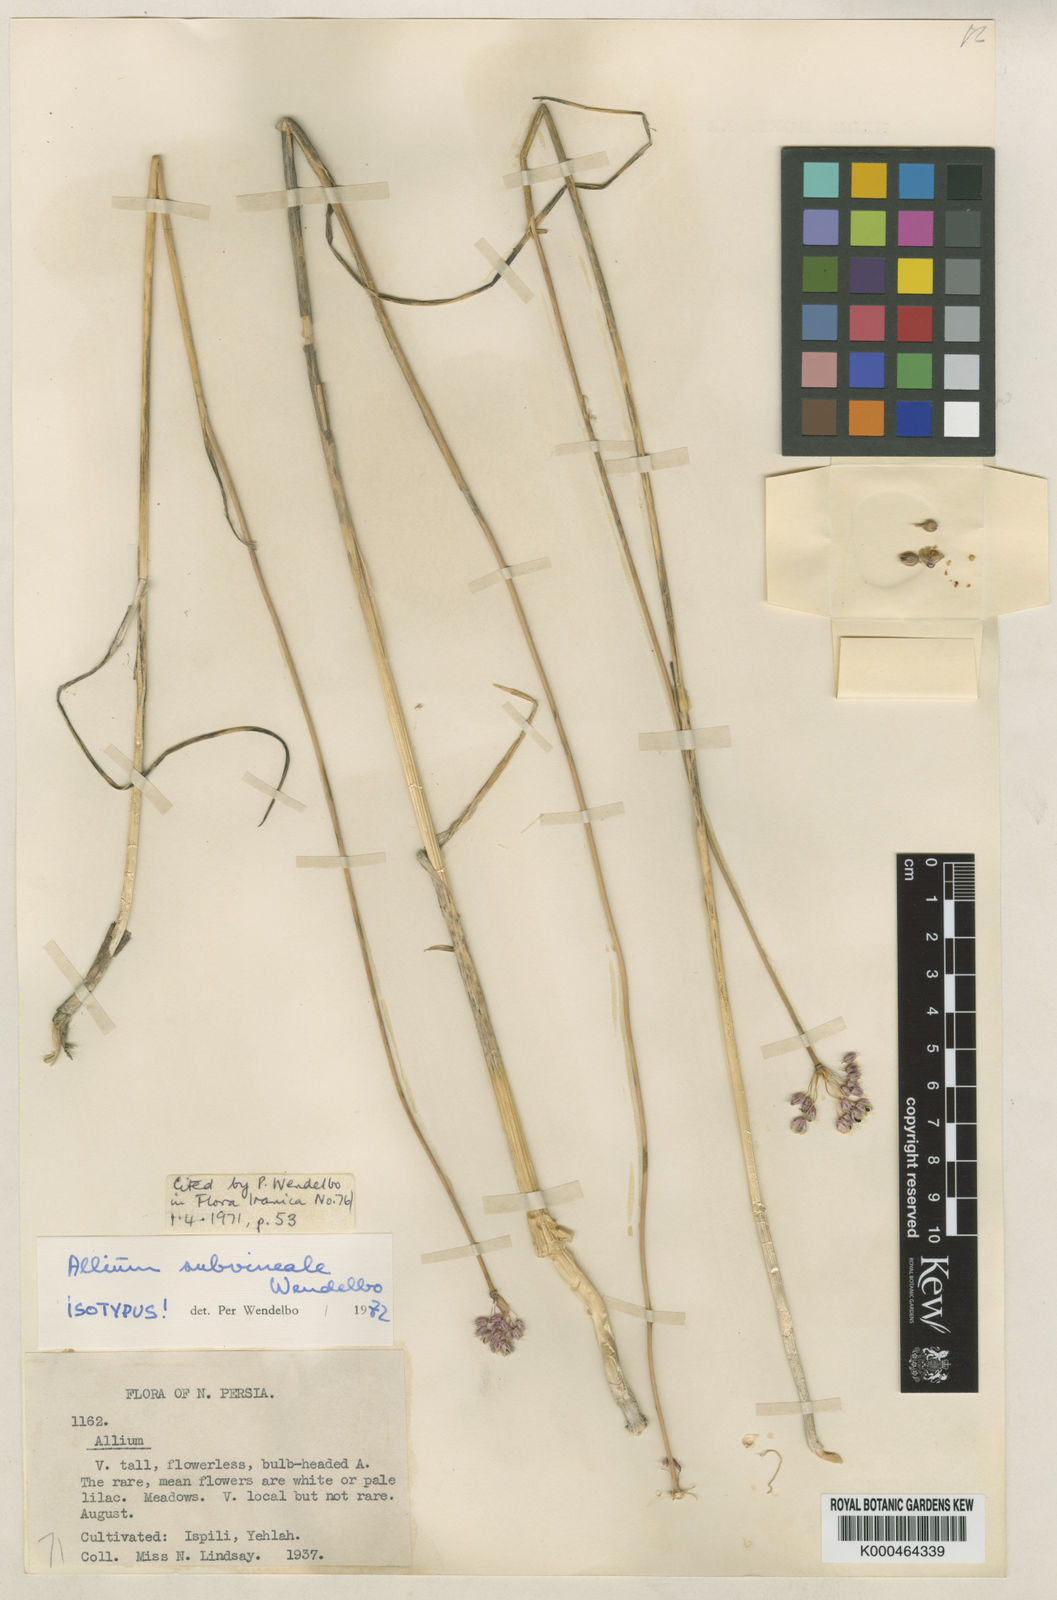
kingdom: Plantae
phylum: Tracheophyta
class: Liliopsida
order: Asparagales
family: Amaryllidaceae
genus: Allium
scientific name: Allium vineale
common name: Crow garlic
